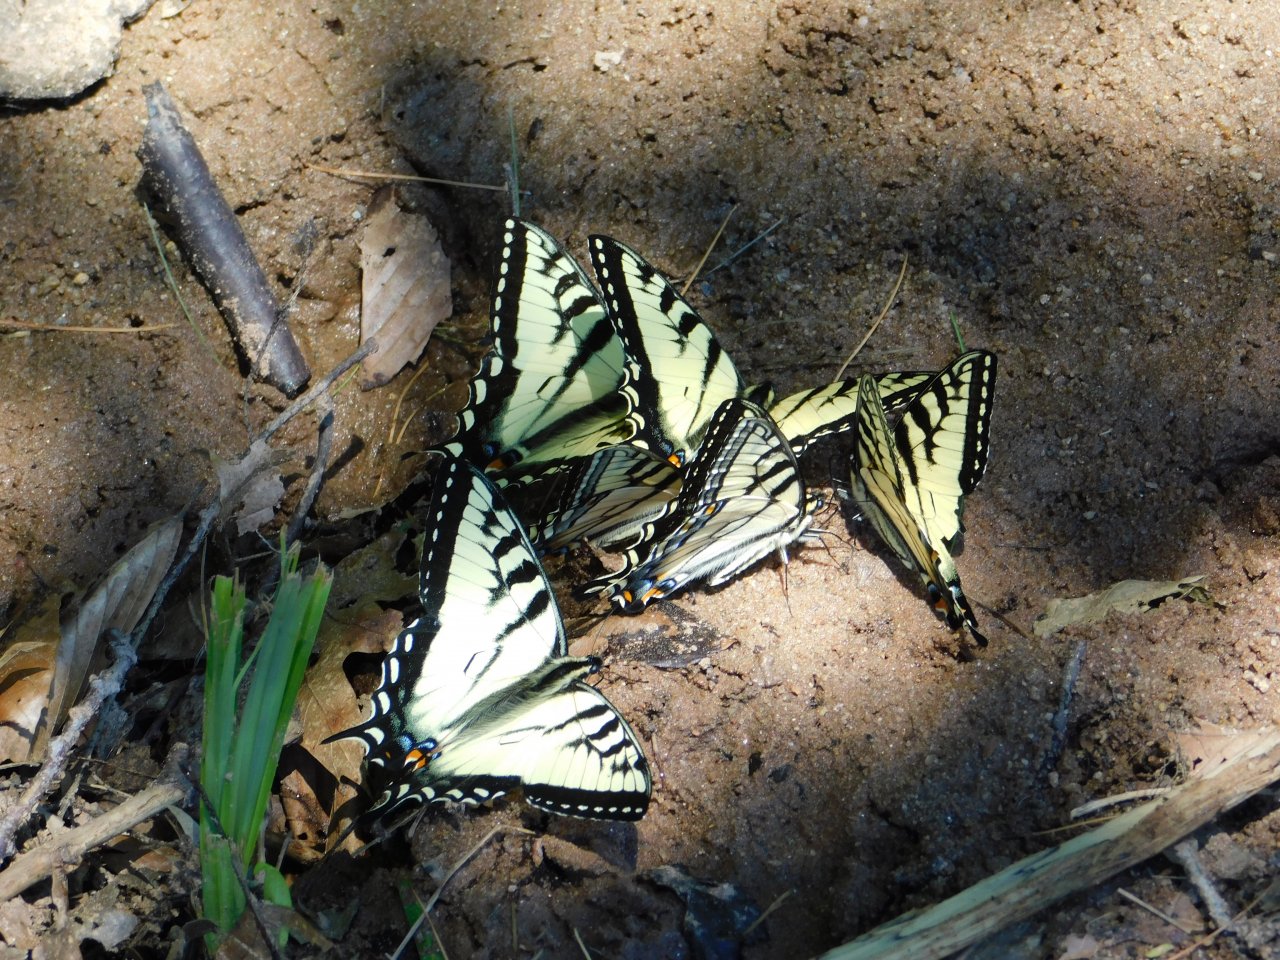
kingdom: Animalia
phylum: Arthropoda
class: Insecta
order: Lepidoptera
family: Papilionidae
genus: Pterourus
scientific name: Pterourus canadensis
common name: Canadian Tiger Swallowtail
